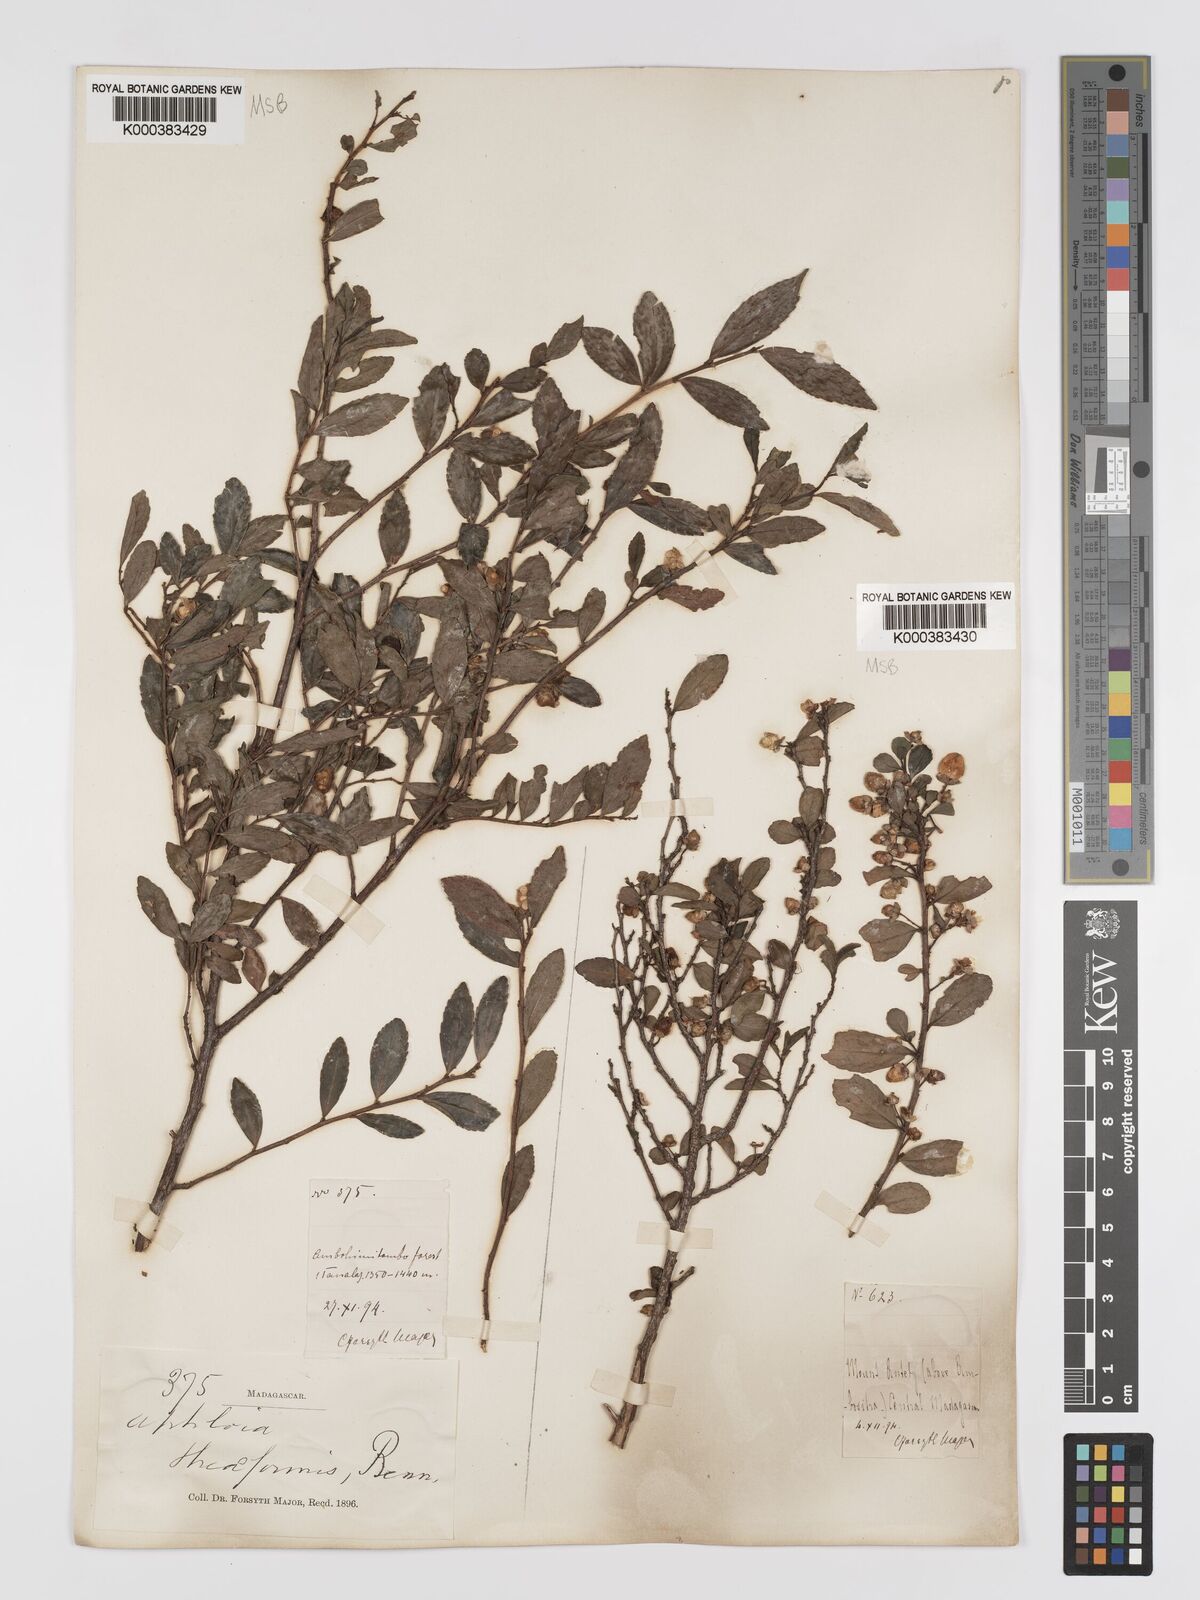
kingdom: Plantae
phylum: Tracheophyta
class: Magnoliopsida
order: Crossosomatales
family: Aphloiaceae
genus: Aphloia
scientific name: Aphloia theiformis
